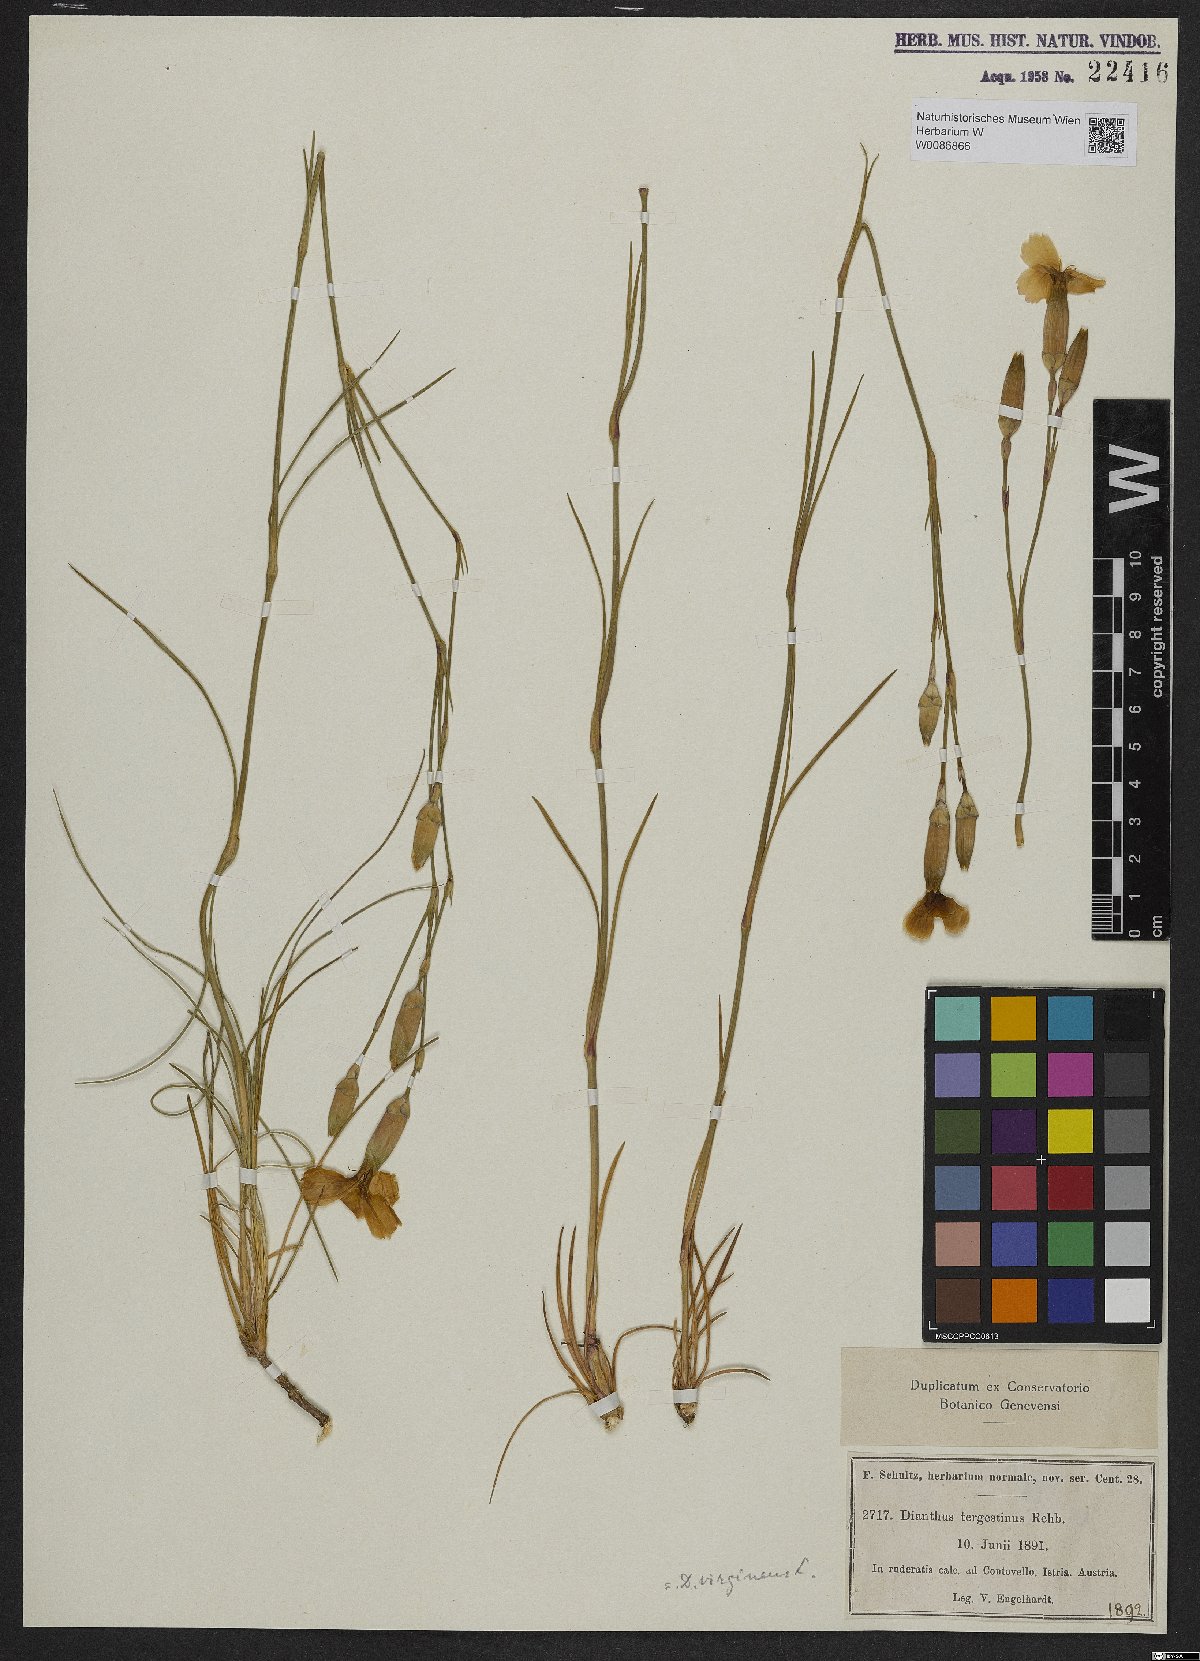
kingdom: Plantae
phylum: Tracheophyta
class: Magnoliopsida
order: Caryophyllales
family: Caryophyllaceae
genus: Dianthus
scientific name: Dianthus sylvestris
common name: Wood pink
